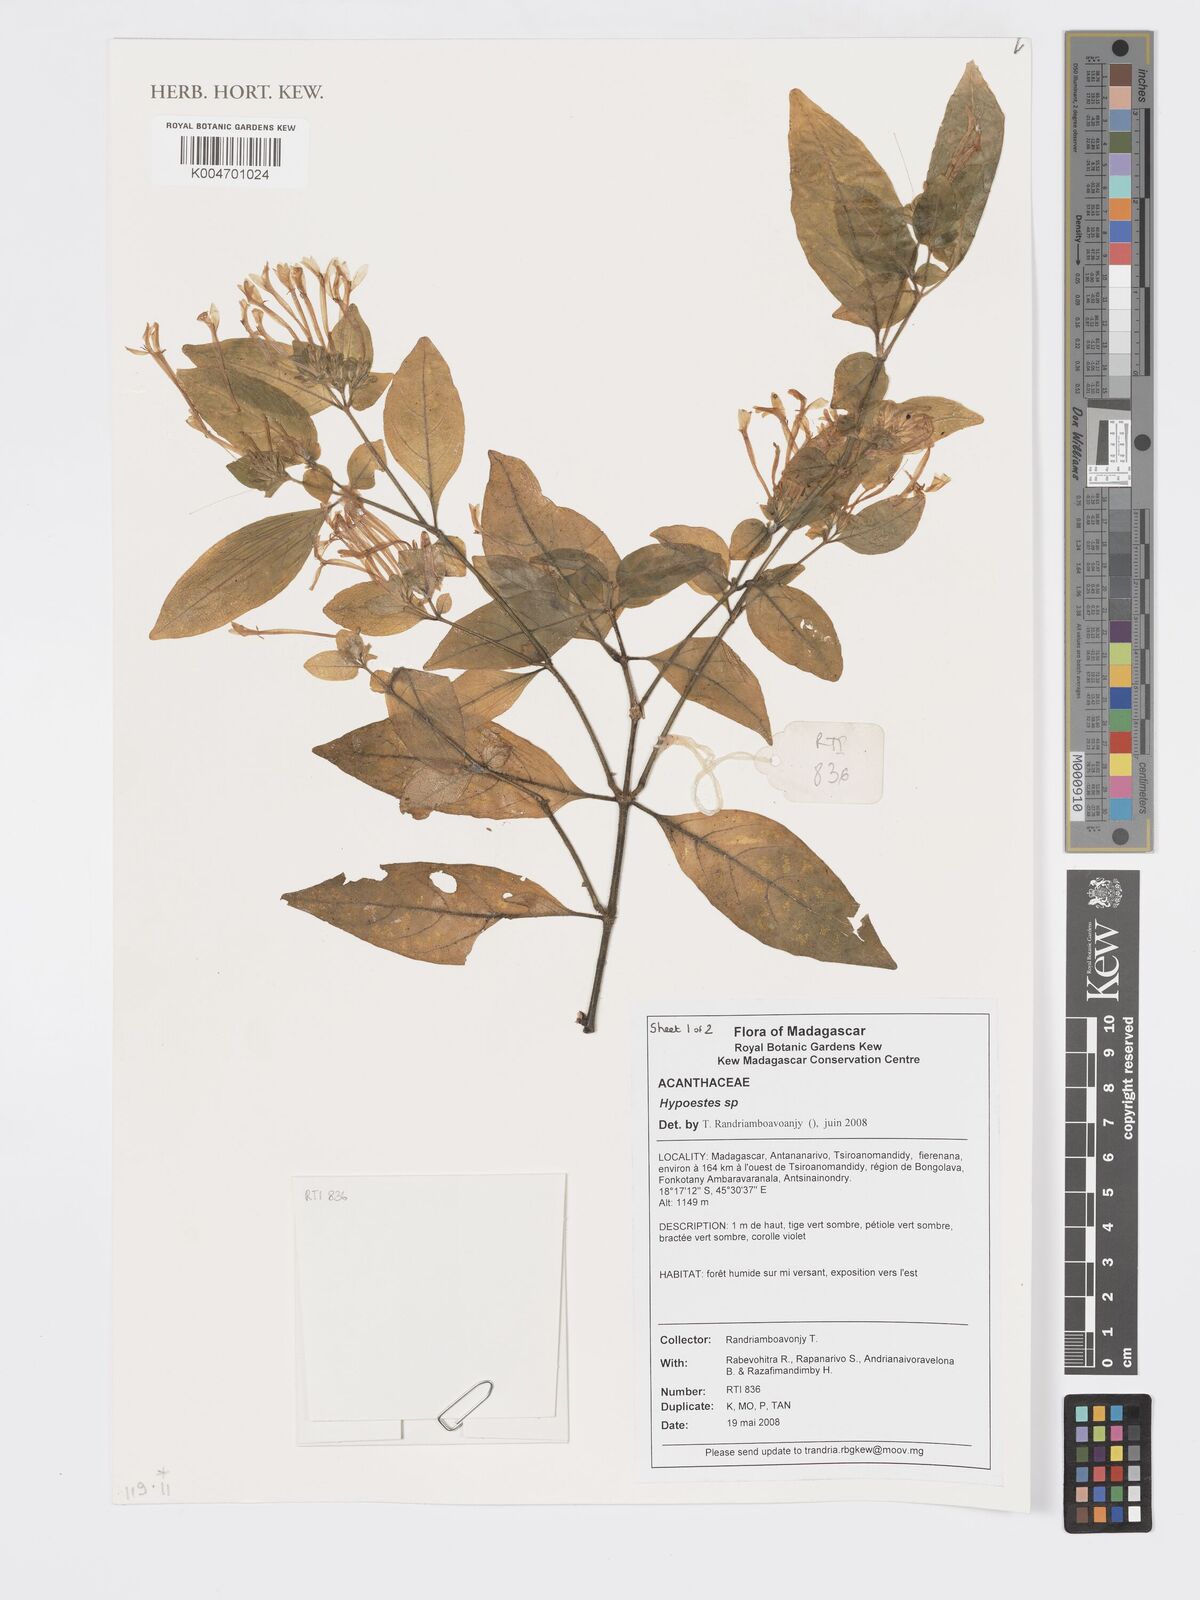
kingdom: Plantae
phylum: Tracheophyta
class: Magnoliopsida
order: Lamiales
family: Acanthaceae
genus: Hypoestes
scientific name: Hypoestes
